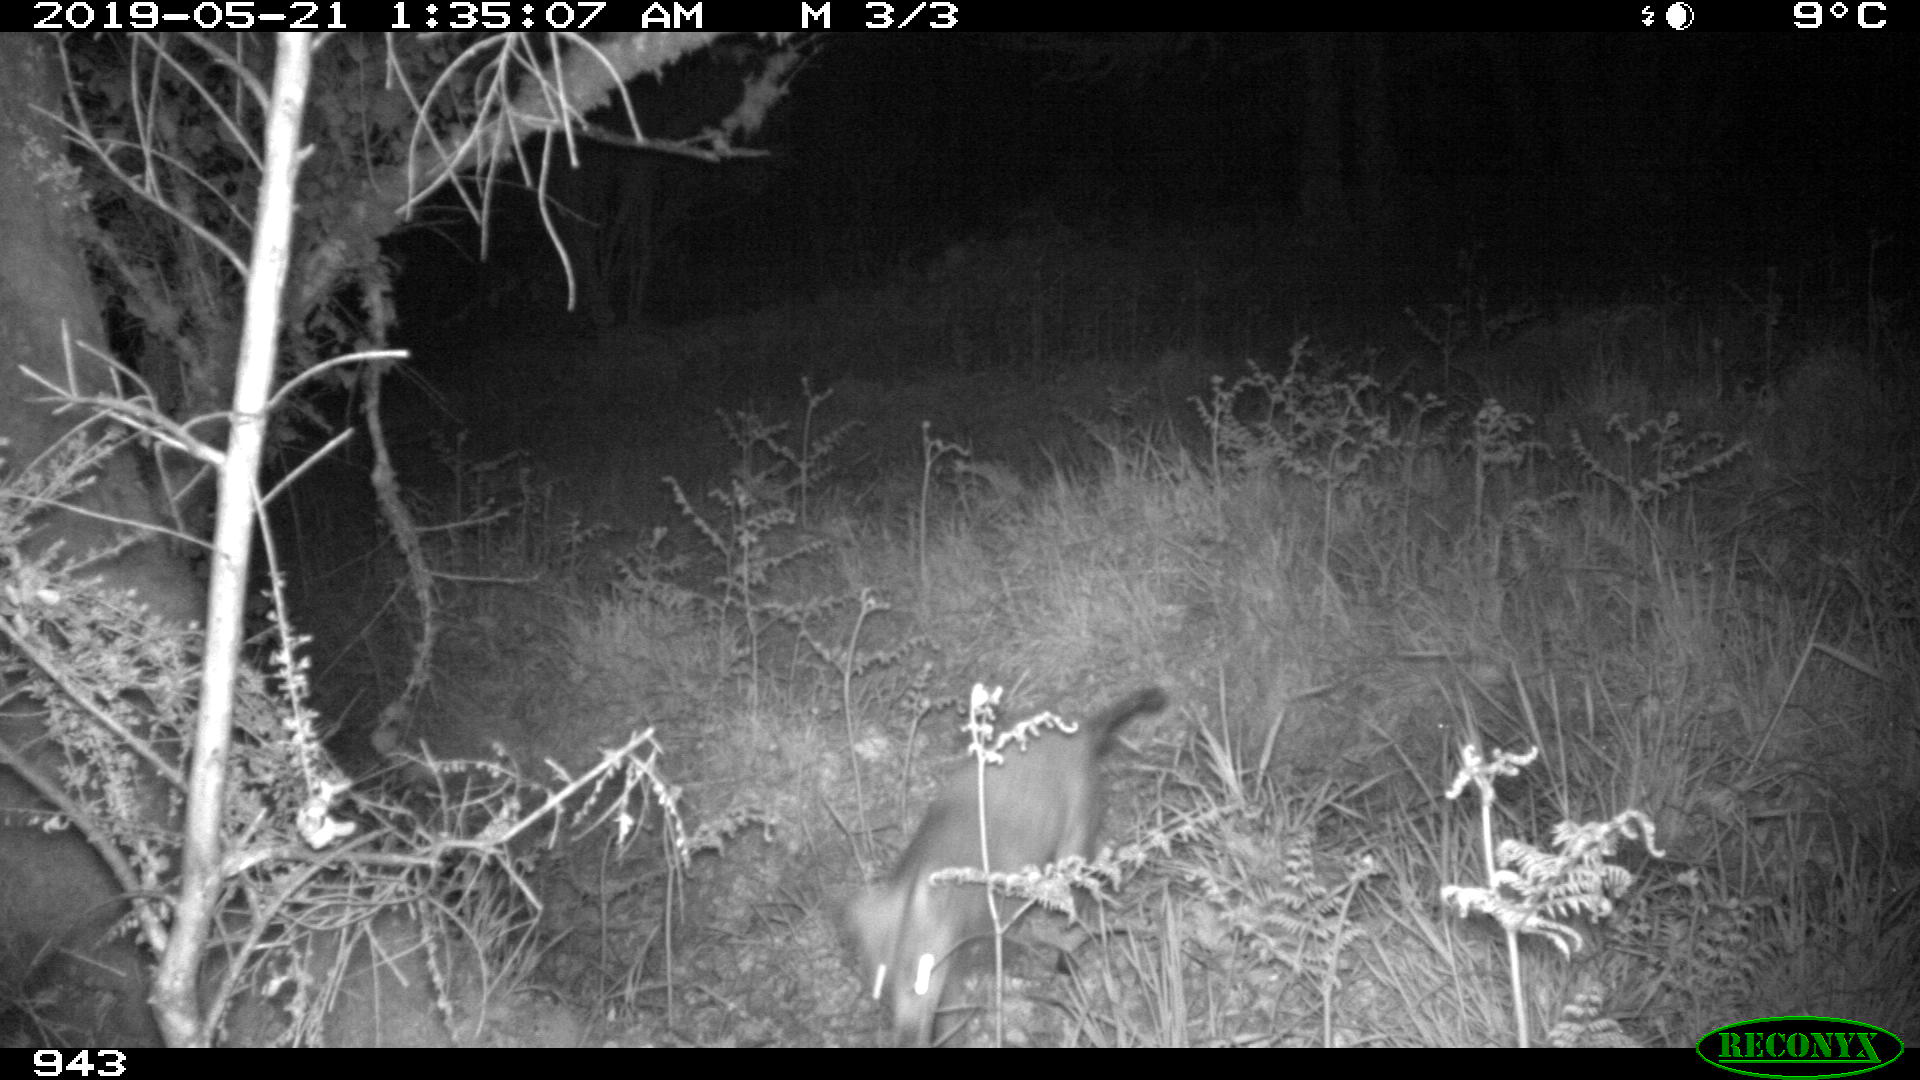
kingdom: Animalia
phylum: Chordata
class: Mammalia
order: Carnivora
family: Canidae
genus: Vulpes
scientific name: Vulpes vulpes
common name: Red fox
